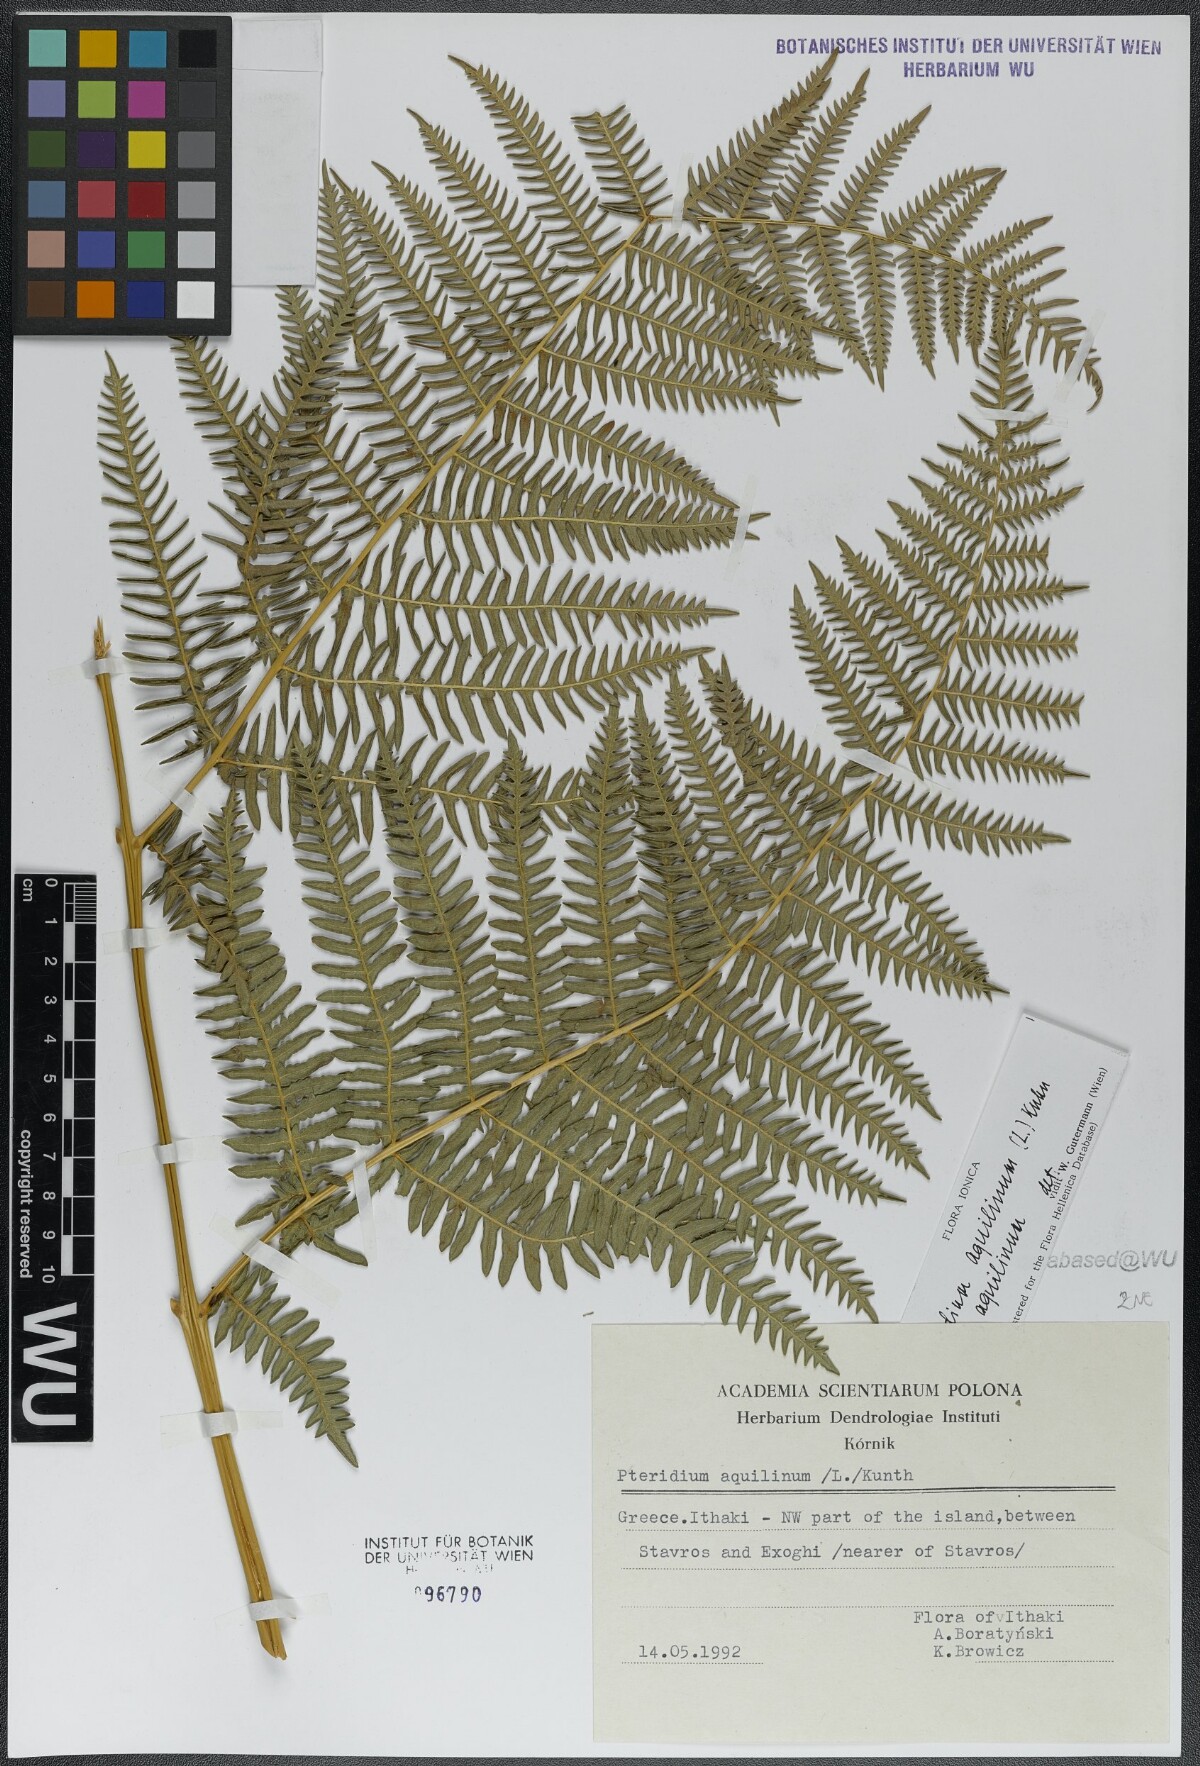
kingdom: Plantae
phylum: Tracheophyta
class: Polypodiopsida
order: Polypodiales
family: Dennstaedtiaceae
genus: Pteridium
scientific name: Pteridium aquilinum
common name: Bracken
